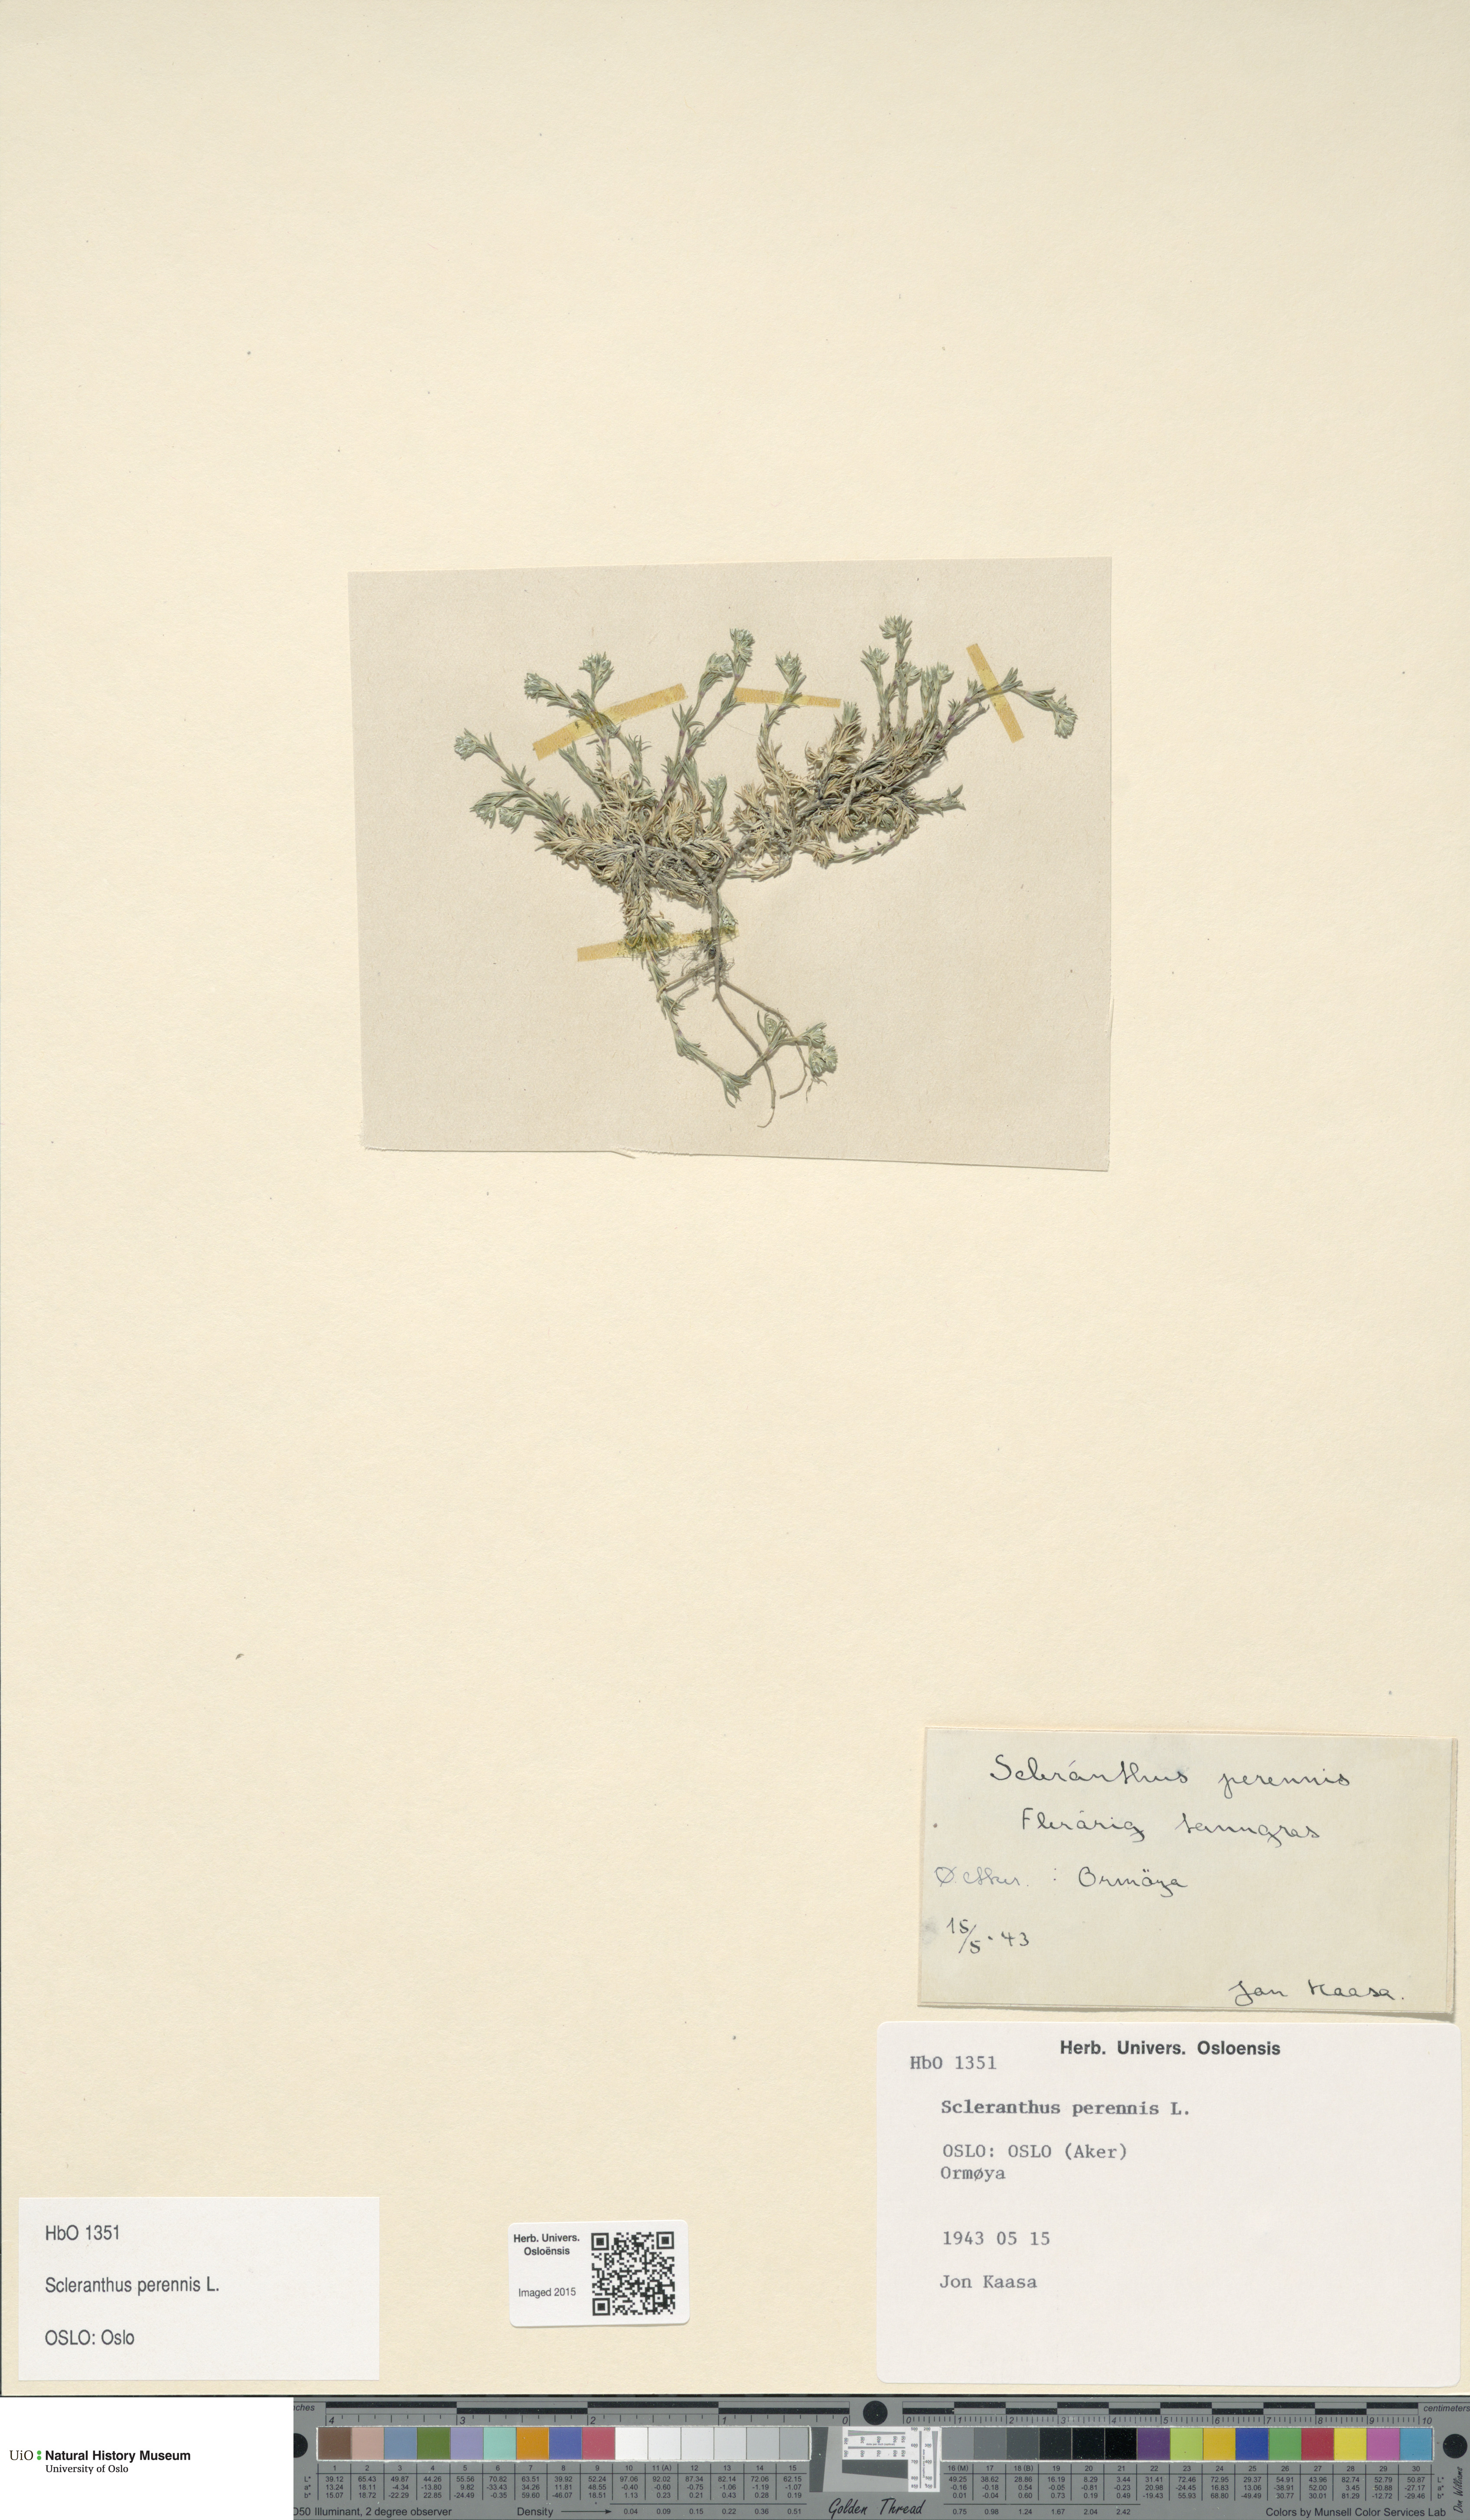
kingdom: Plantae
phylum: Tracheophyta
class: Magnoliopsida
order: Caryophyllales
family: Caryophyllaceae
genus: Scleranthus
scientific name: Scleranthus perennis
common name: Perennial knawel
